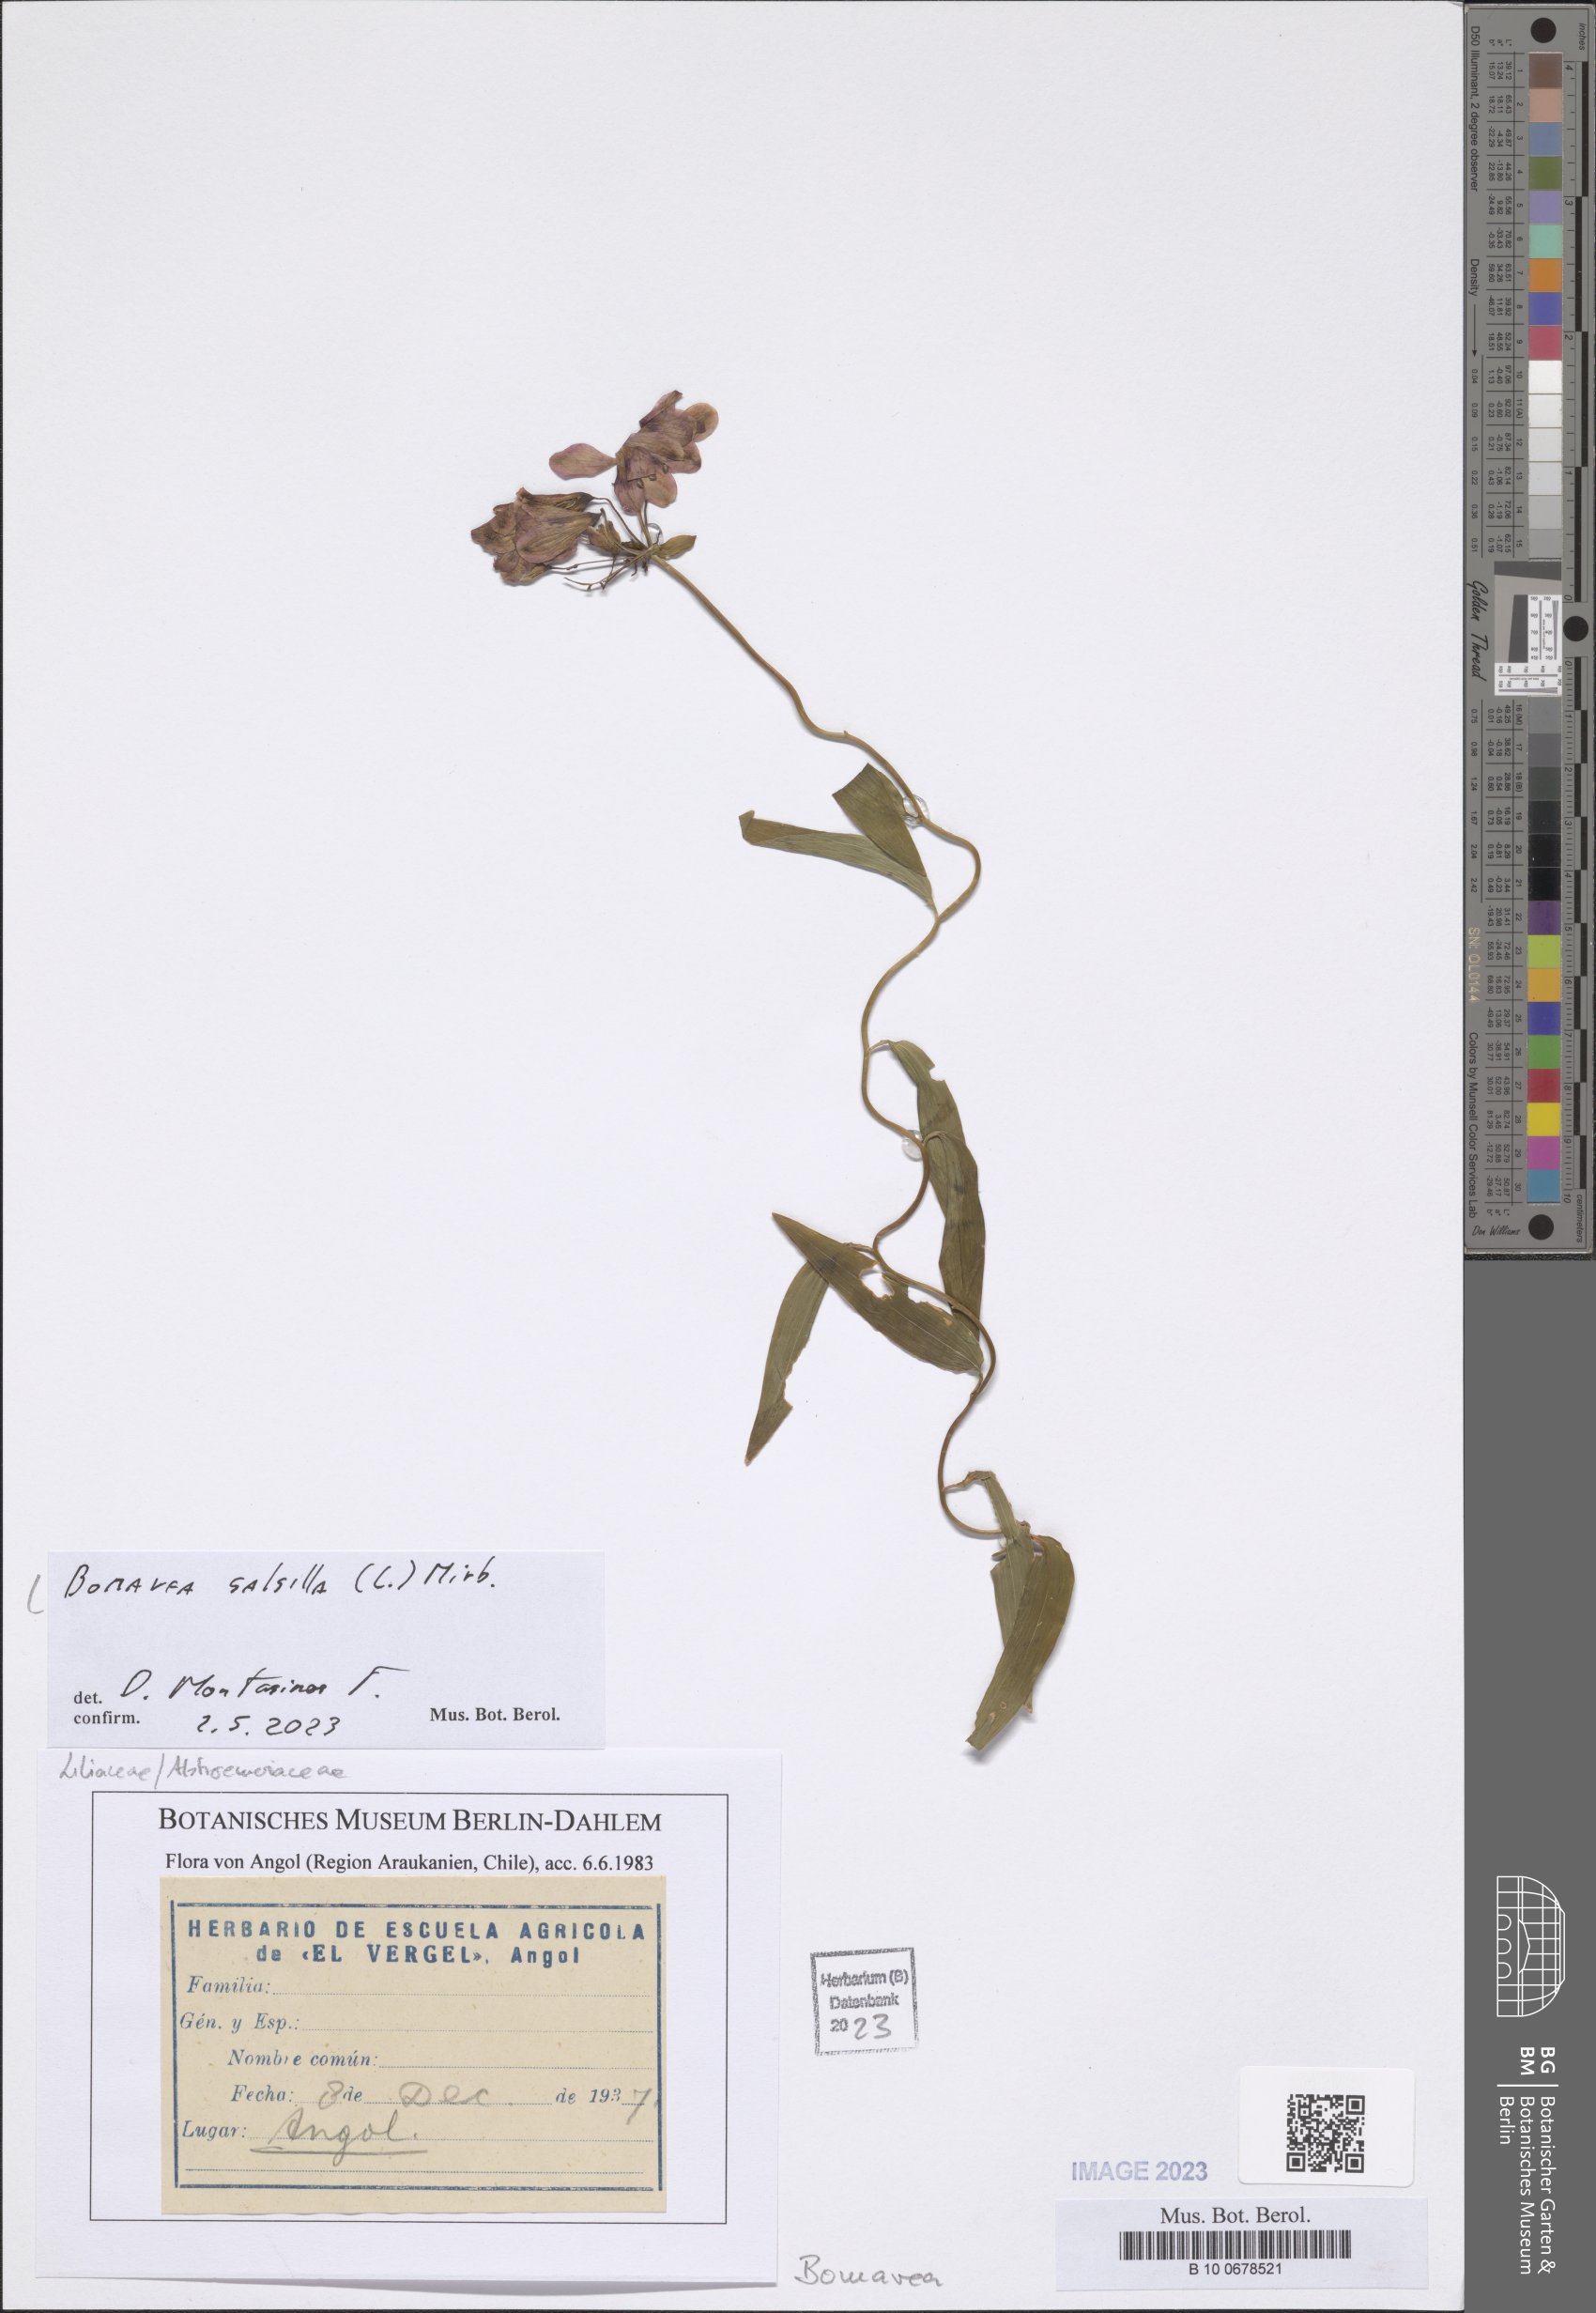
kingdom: Plantae
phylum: Tracheophyta
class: Liliopsida
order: Liliales
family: Alstroemeriaceae
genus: Bomarea
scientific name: Bomarea salsilla
